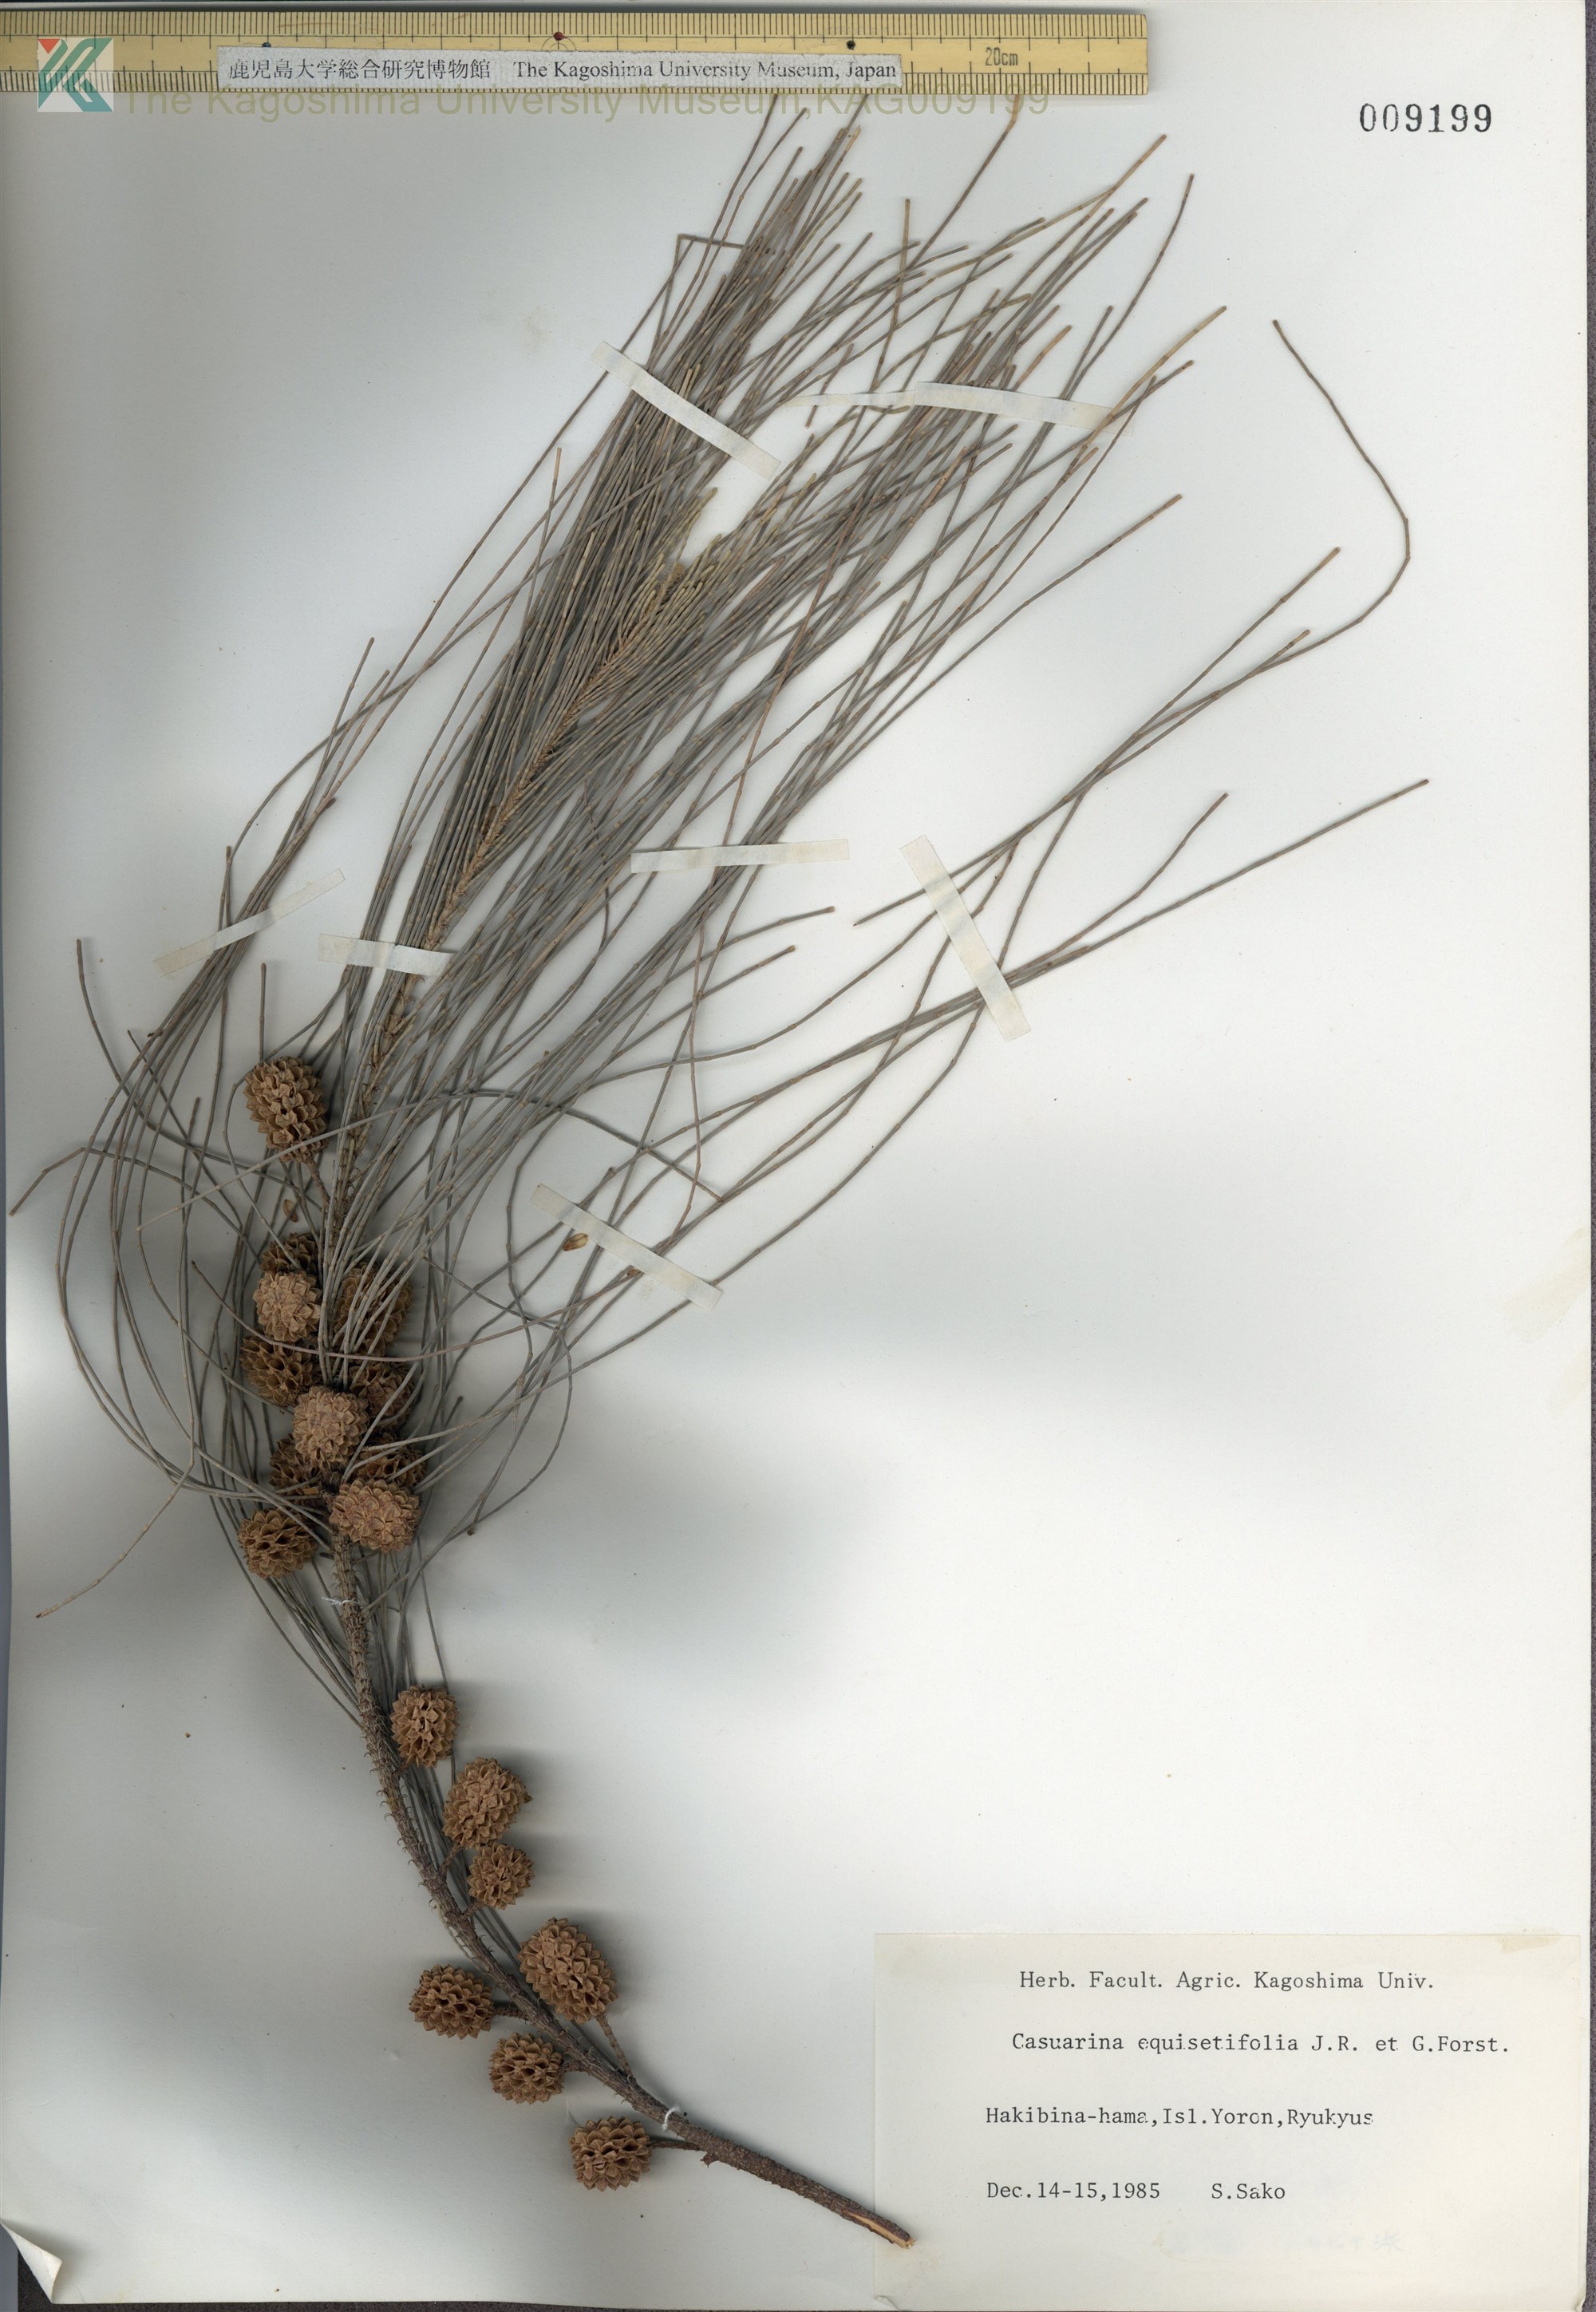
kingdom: Plantae
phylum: Tracheophyta
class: Magnoliopsida
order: Fagales
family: Casuarinaceae
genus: Casuarina
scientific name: Casuarina equisetifolia
